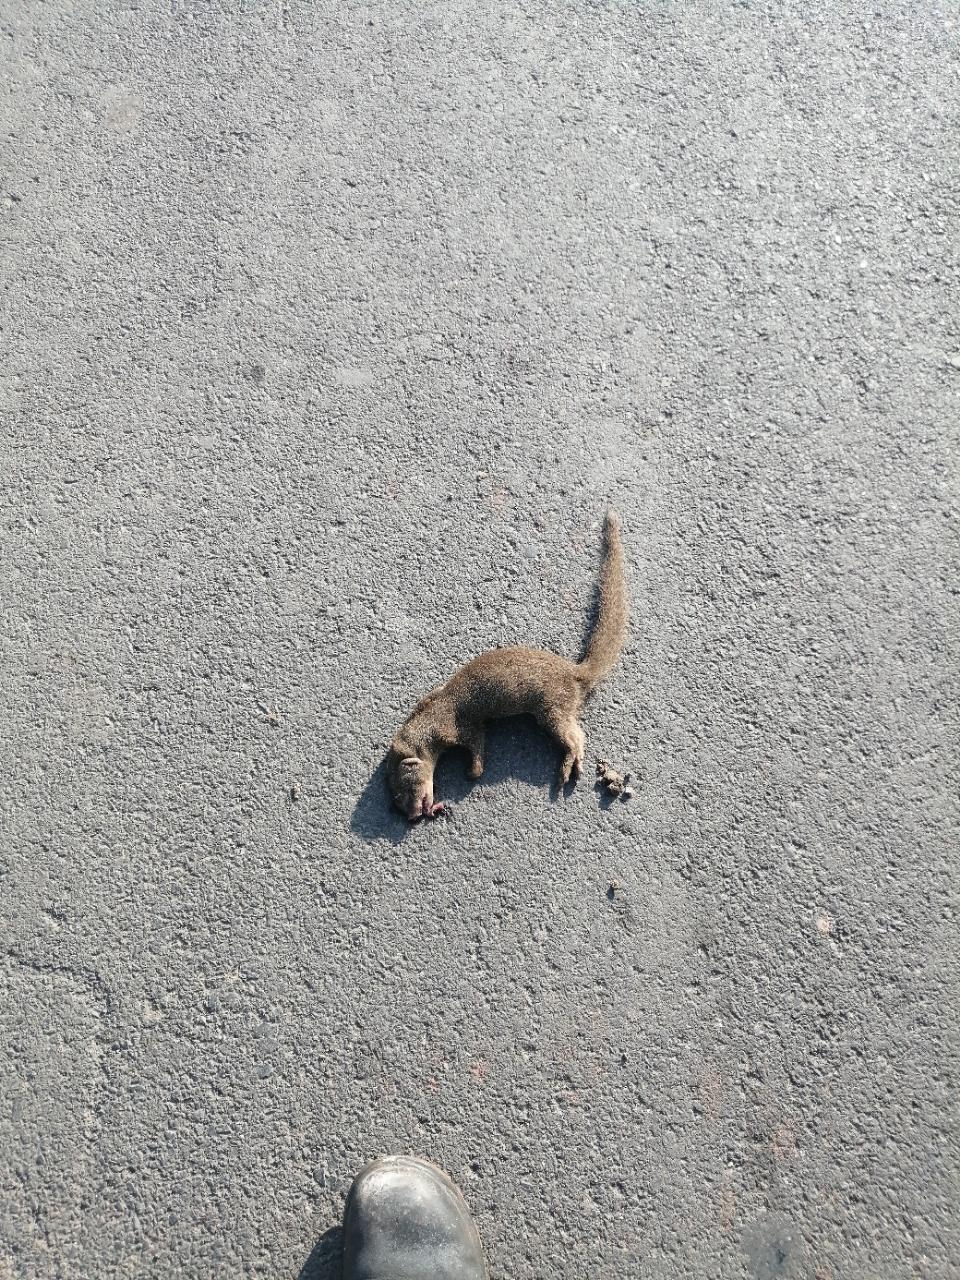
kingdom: Animalia
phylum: Chordata
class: Mammalia
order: Carnivora
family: Herpestidae
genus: Herpestes
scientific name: Herpestes
